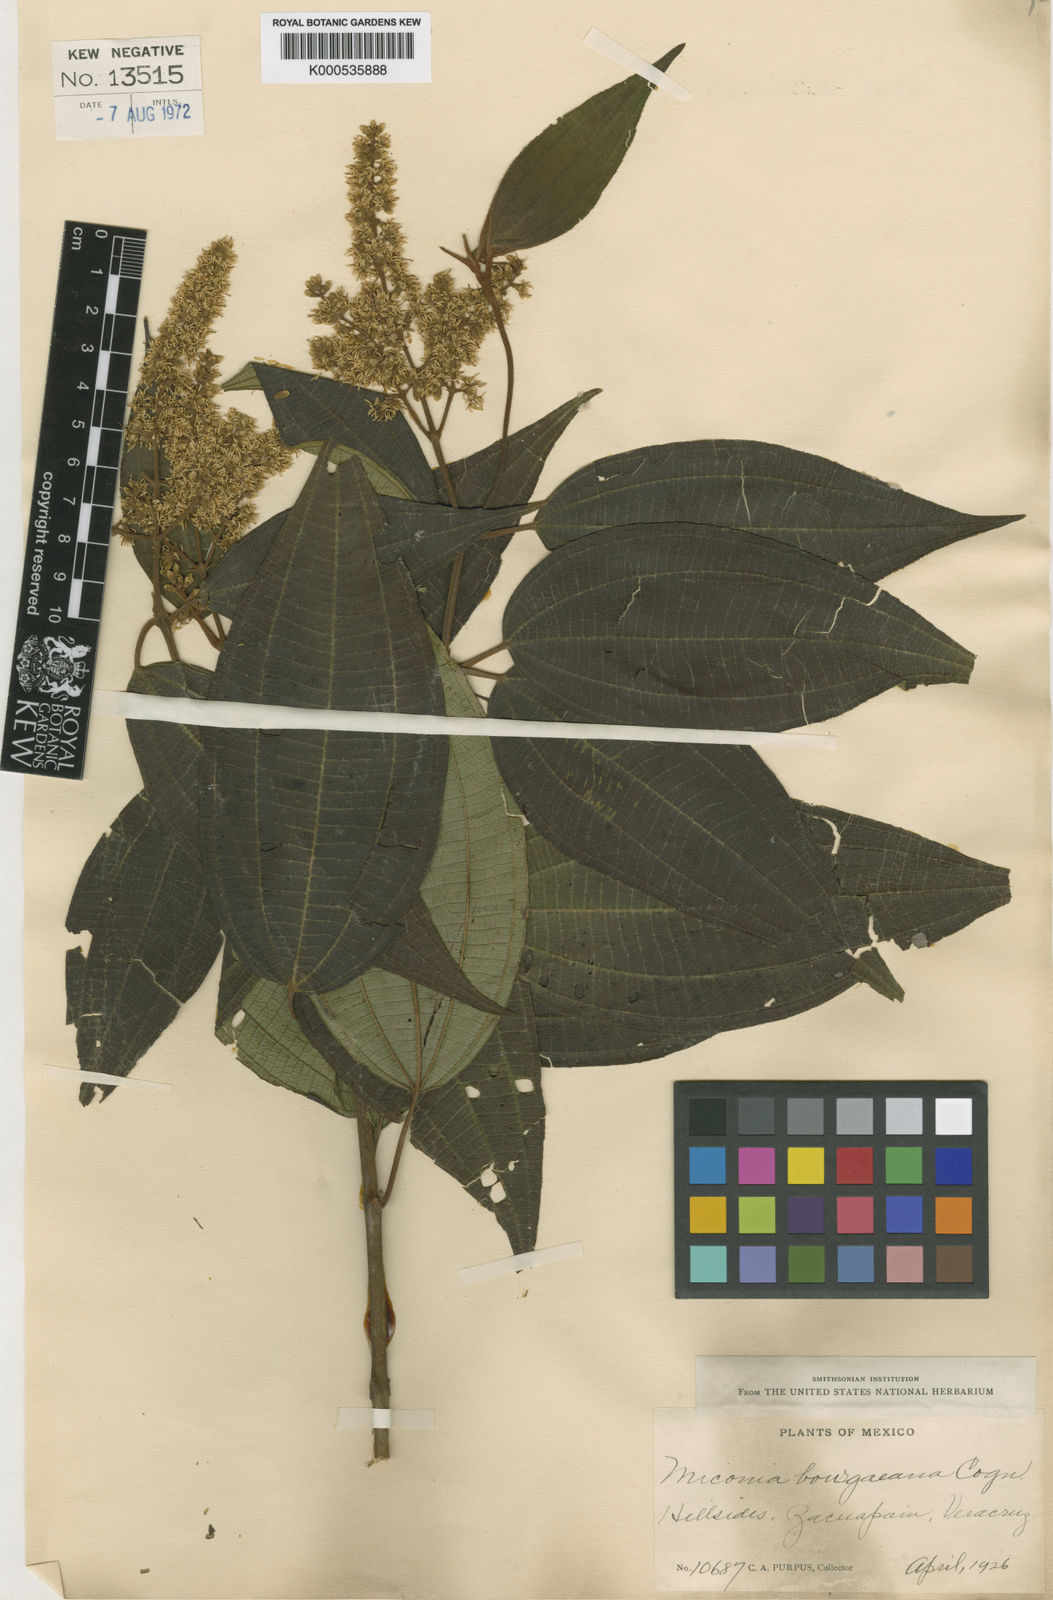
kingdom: Plantae
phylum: Tracheophyta
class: Magnoliopsida
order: Myrtales
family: Melastomataceae
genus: Miconia
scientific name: Miconia desmantha
